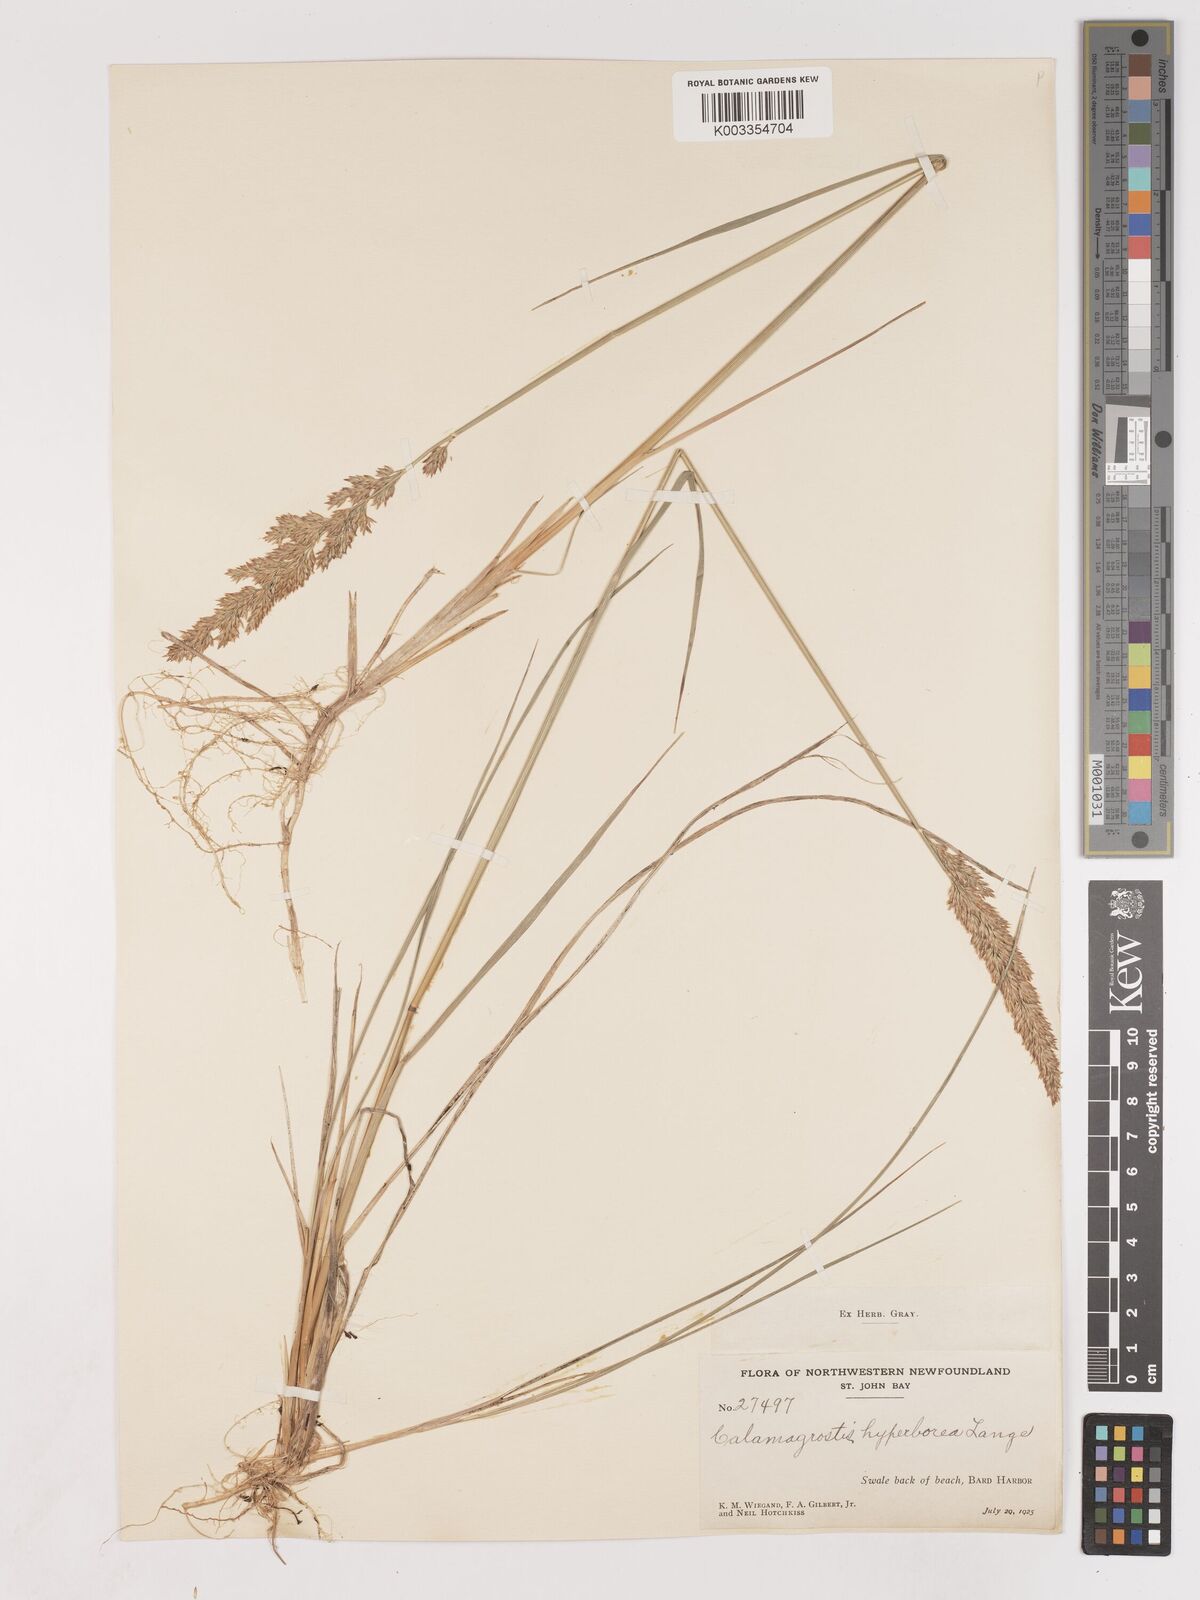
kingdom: Plantae
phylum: Tracheophyta
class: Liliopsida
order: Poales
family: Poaceae
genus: Cinnagrostis
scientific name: Cinnagrostis recta
